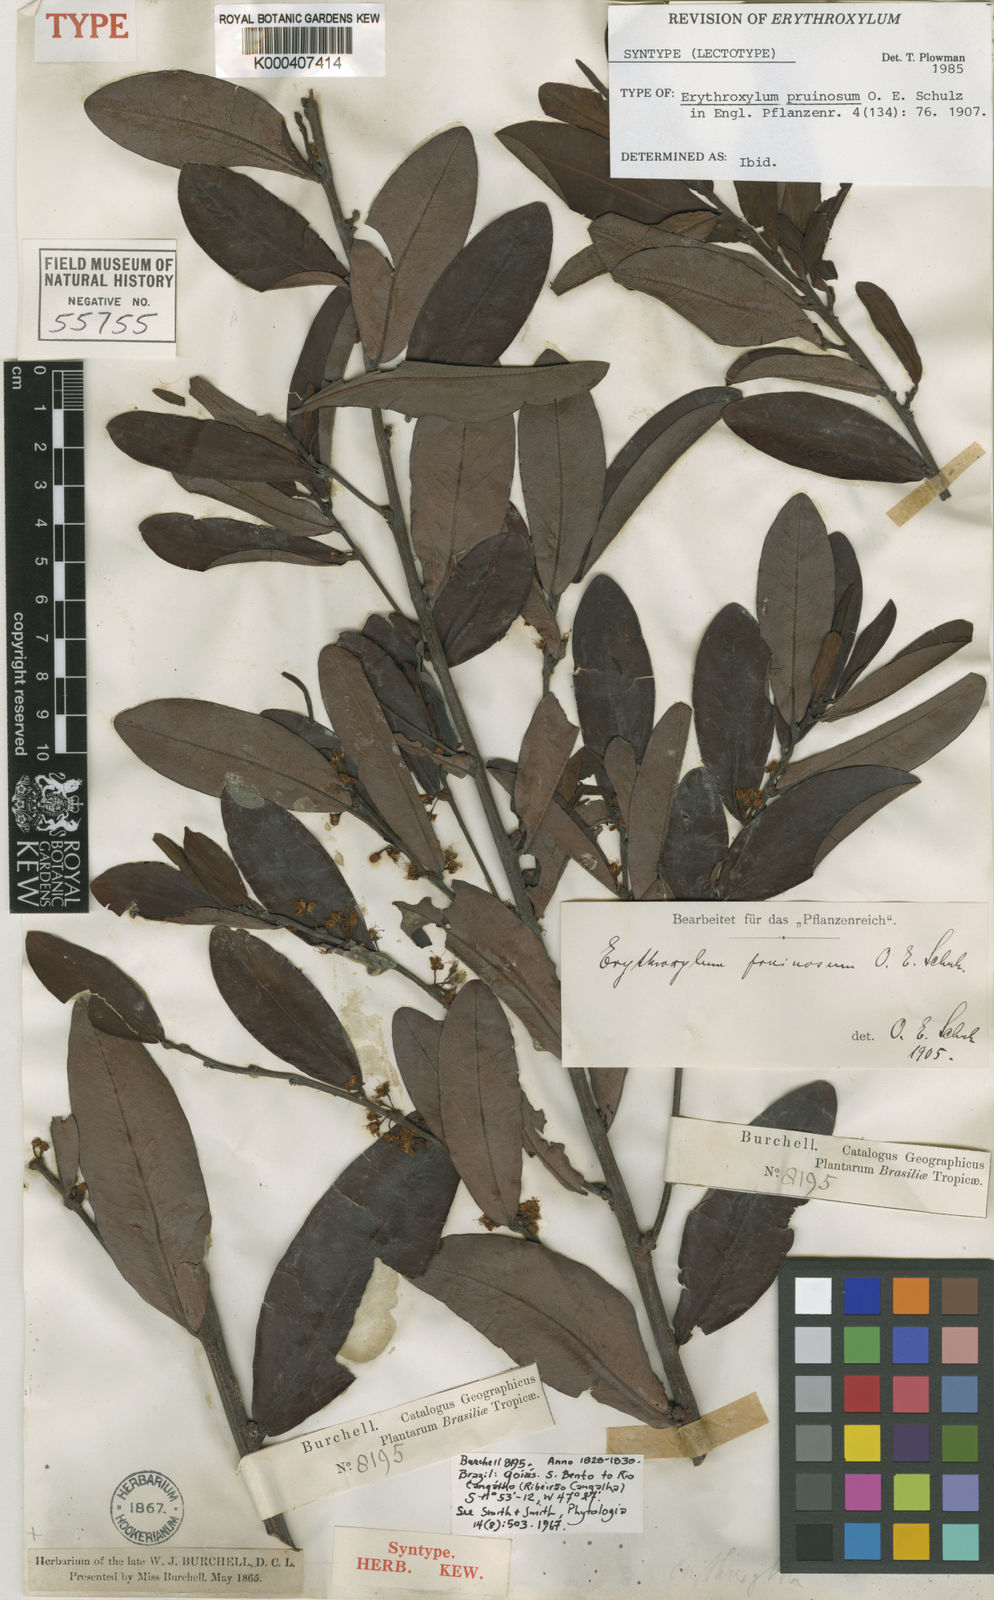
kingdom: Plantae
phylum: Tracheophyta
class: Magnoliopsida
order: Malpighiales
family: Erythroxylaceae
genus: Erythroxylum
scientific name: Erythroxylum pruinosum
